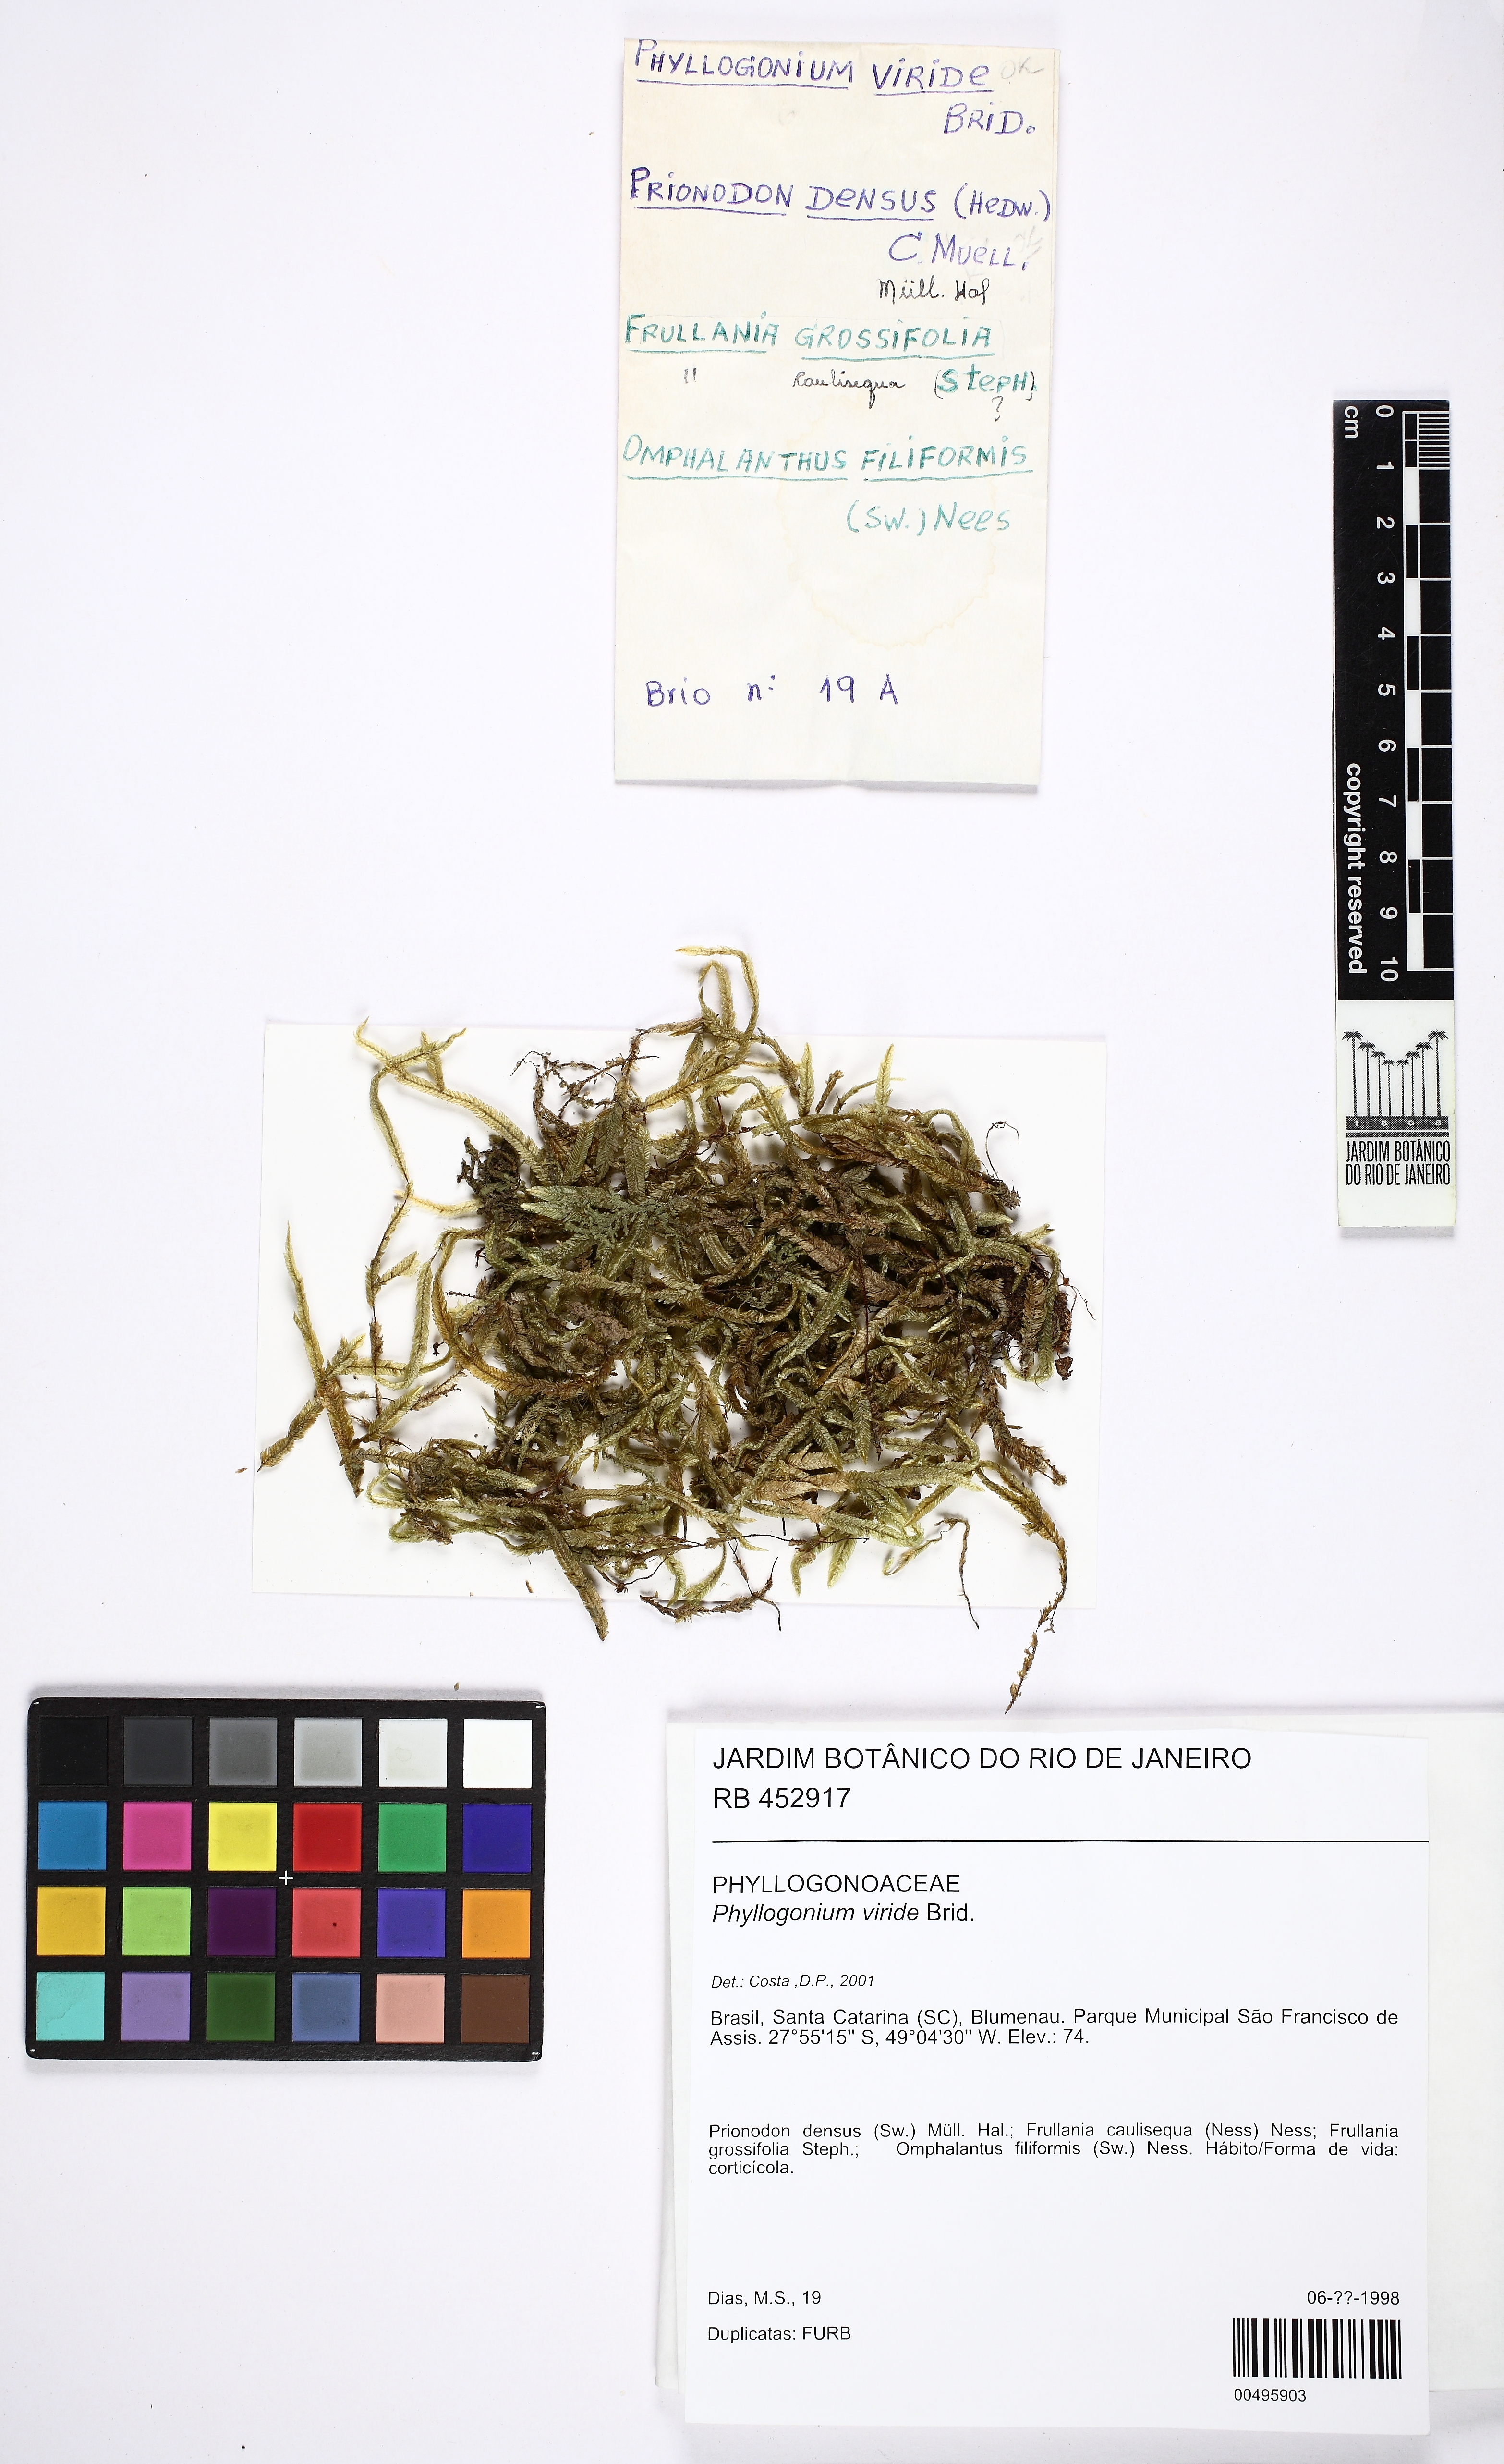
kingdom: Plantae
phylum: Bryophyta
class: Bryopsida
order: Hypnales
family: Phyllogoniaceae
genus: Phyllogonium
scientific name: Phyllogonium viride
